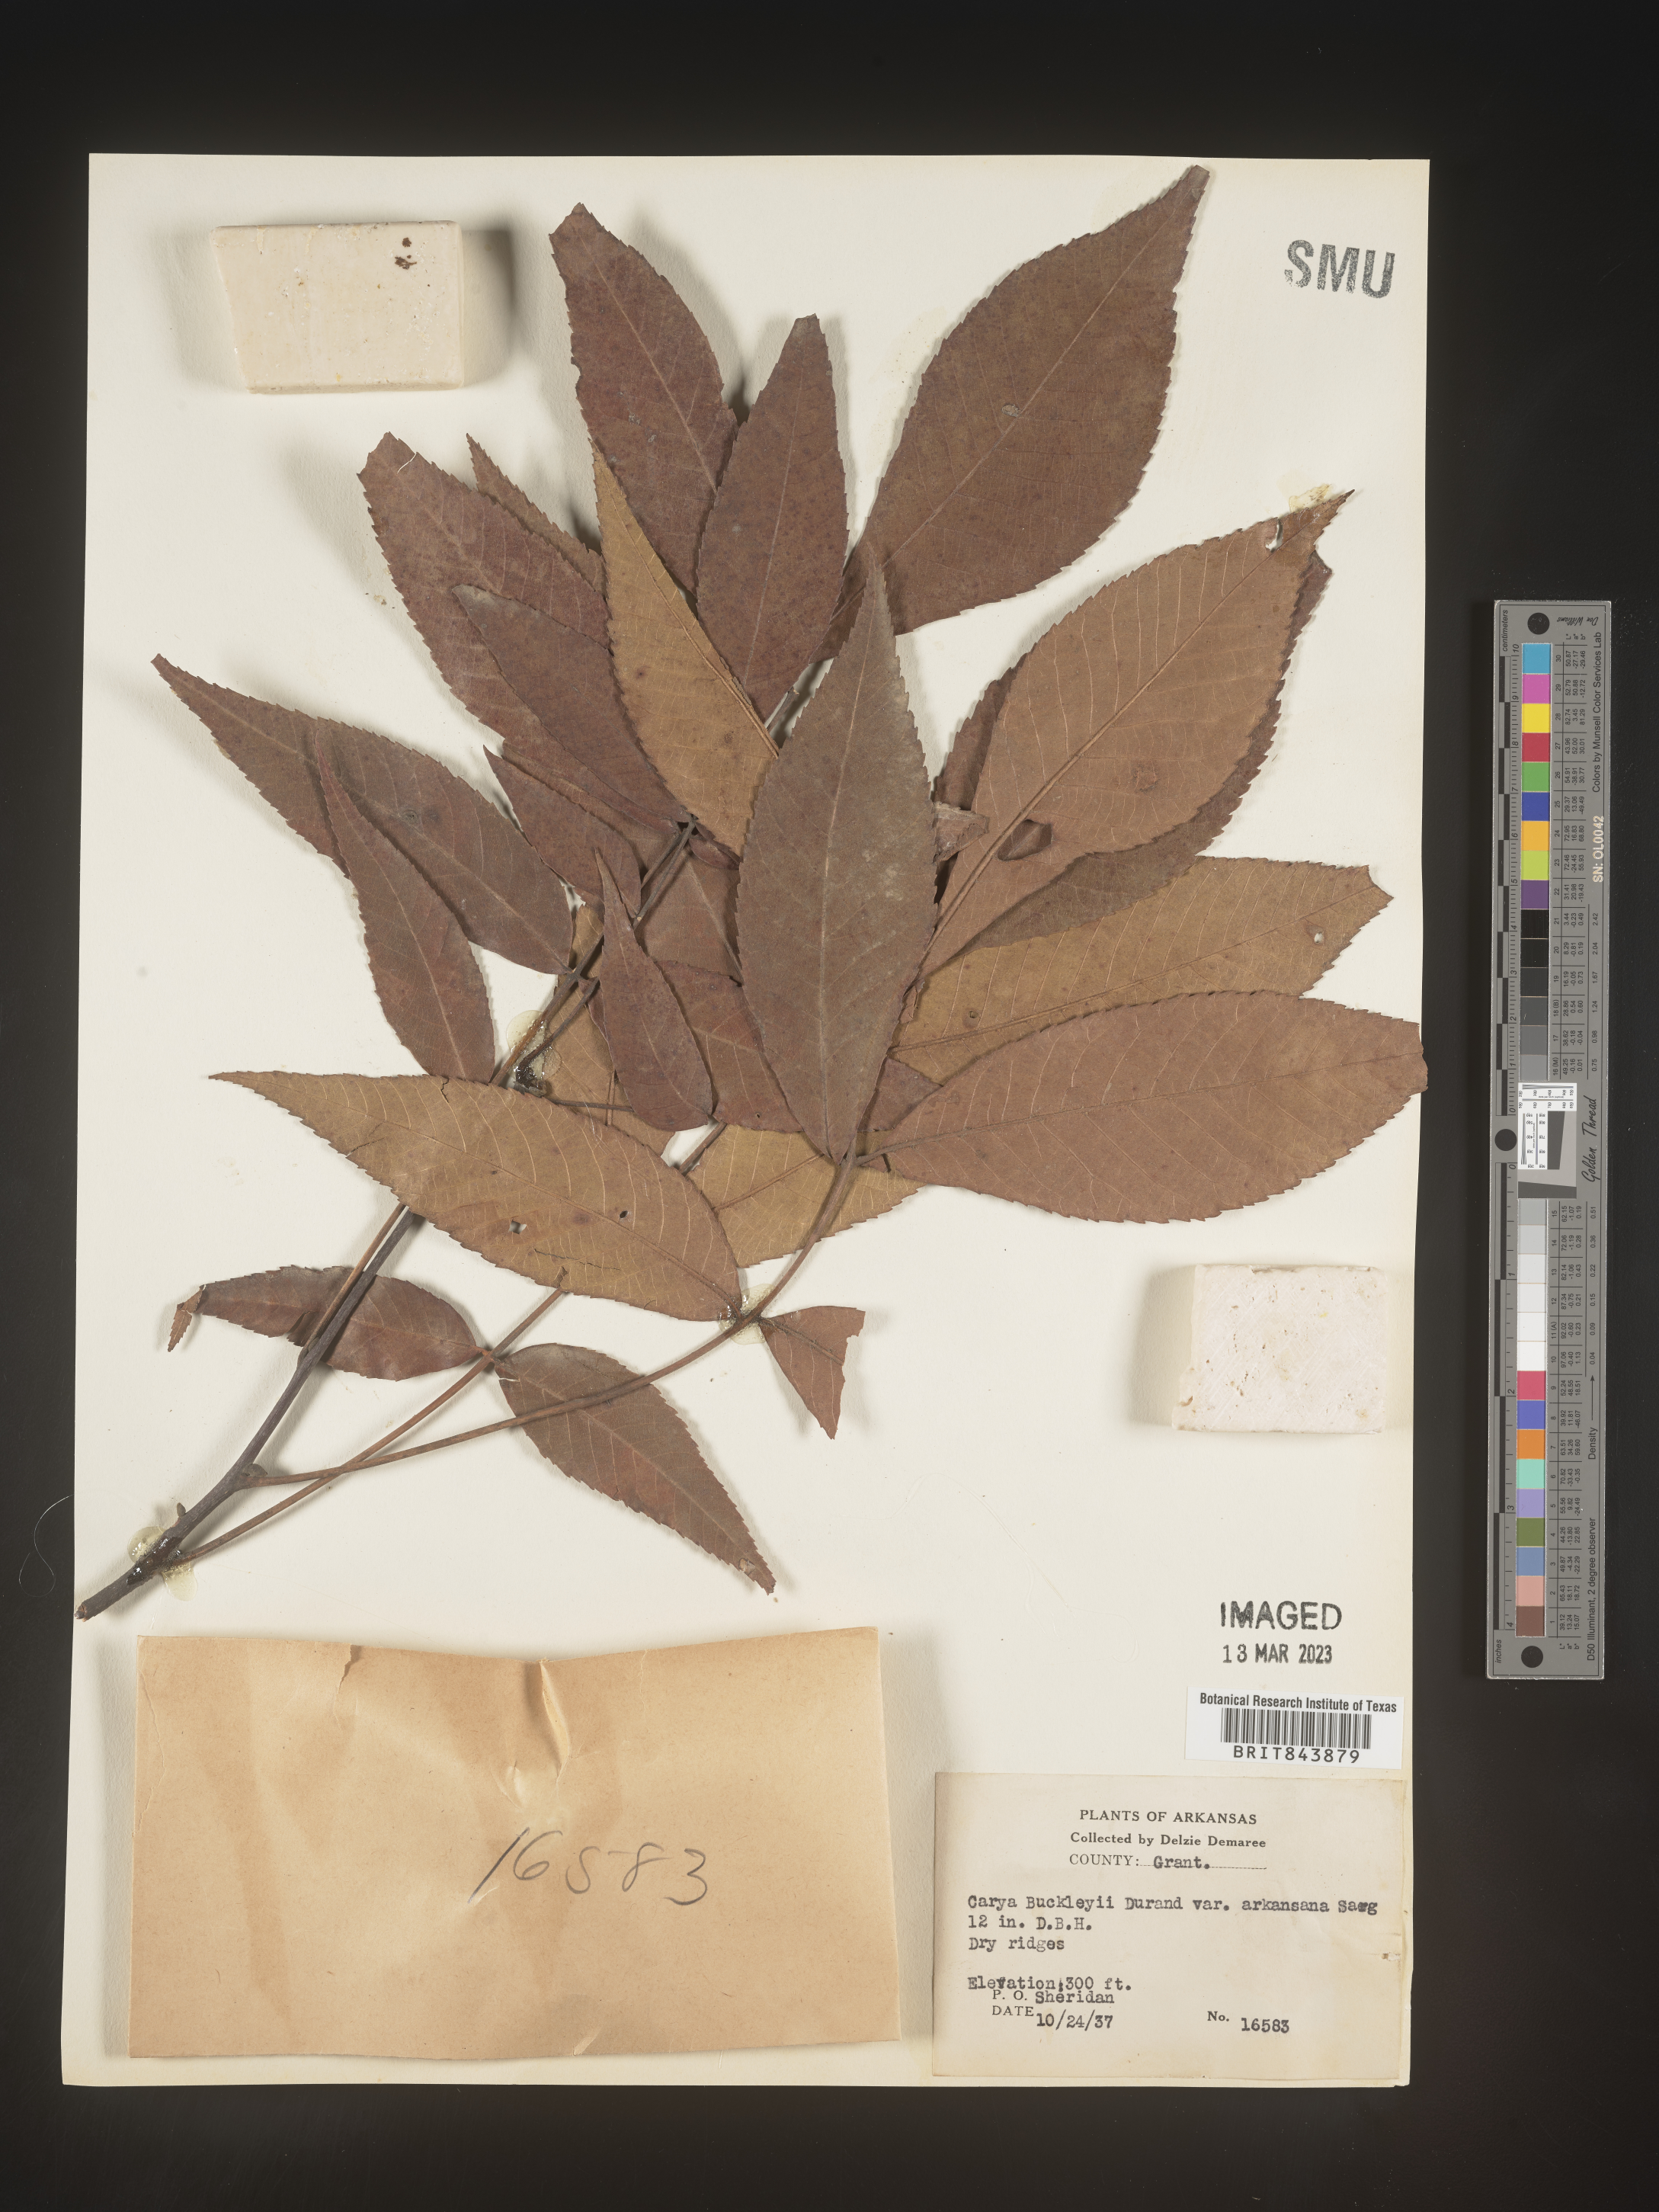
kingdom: Plantae
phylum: Tracheophyta
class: Magnoliopsida
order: Fagales
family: Juglandaceae
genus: Carya
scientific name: Carya texana
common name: Black hickory
